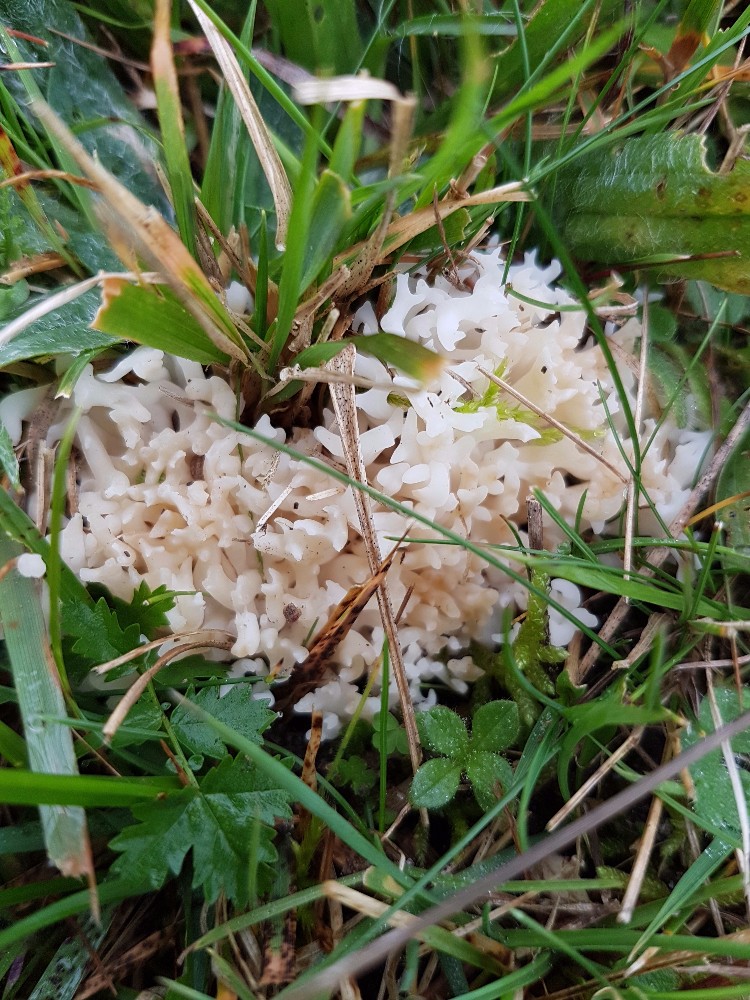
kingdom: Fungi
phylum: Basidiomycota
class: Agaricomycetes
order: Agaricales
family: Clavariaceae
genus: Ramariopsis
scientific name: Ramariopsis robusta
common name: tykgrenet køllesvamp
